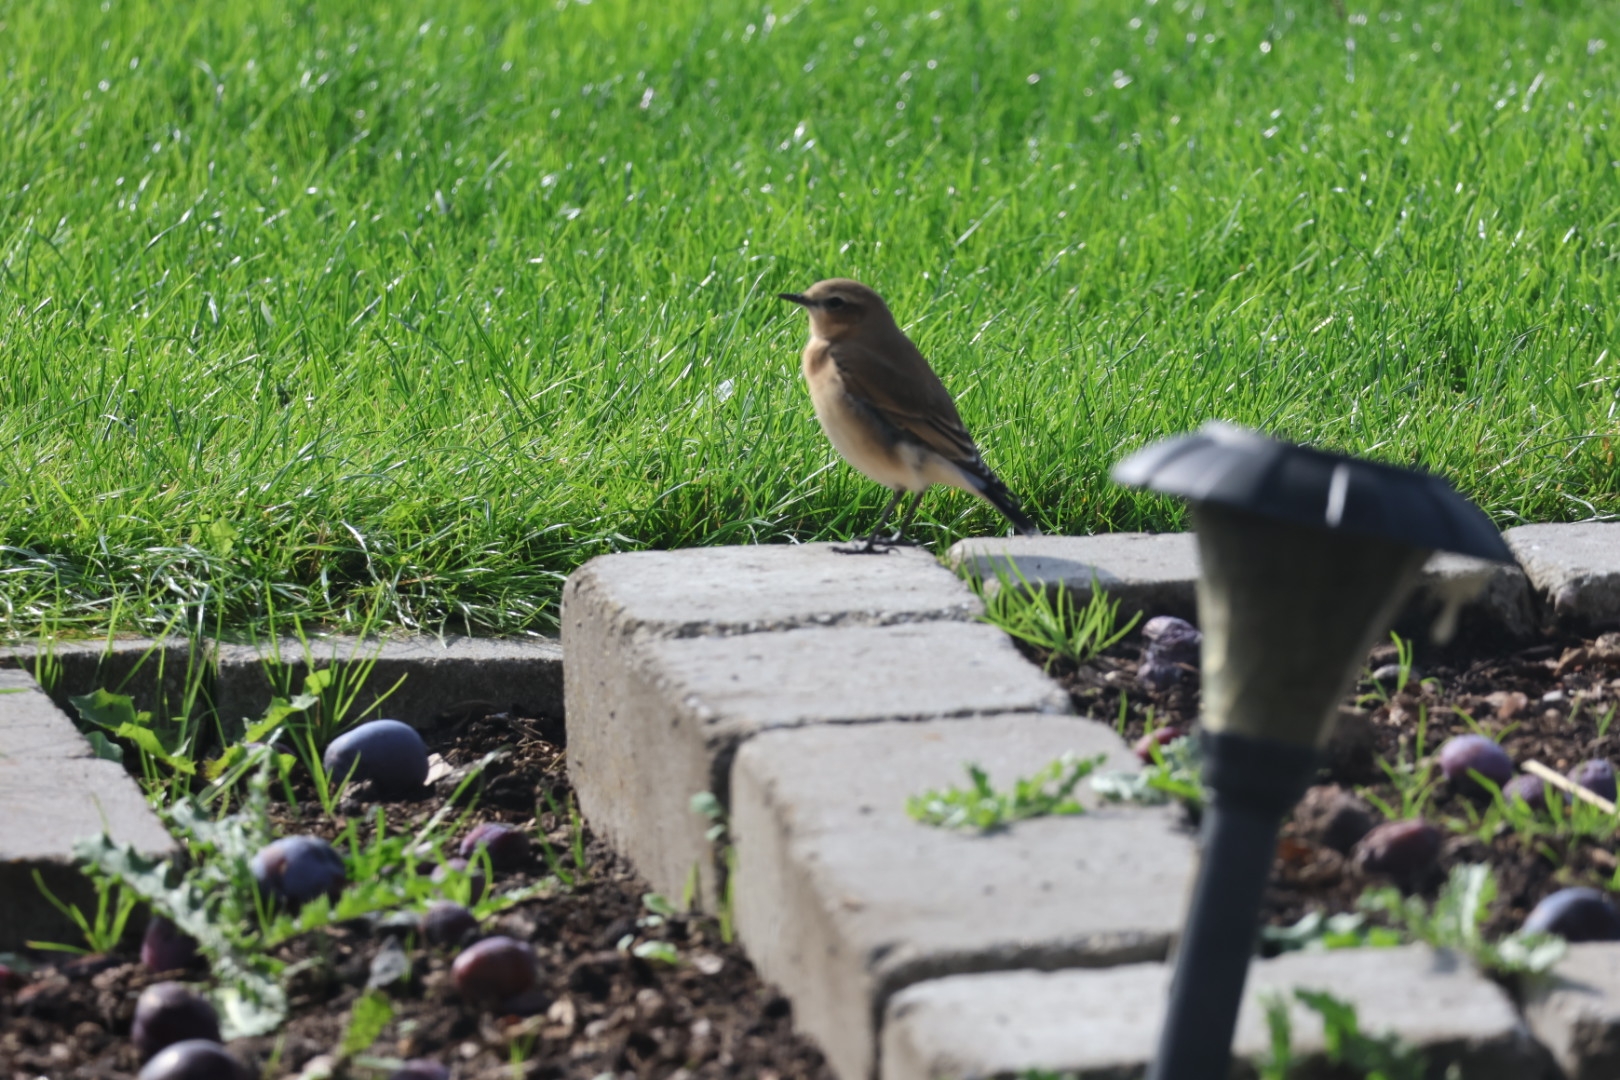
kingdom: Animalia
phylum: Chordata
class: Aves
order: Passeriformes
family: Muscicapidae
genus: Oenanthe
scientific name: Oenanthe oenanthe
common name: Stenpikker
